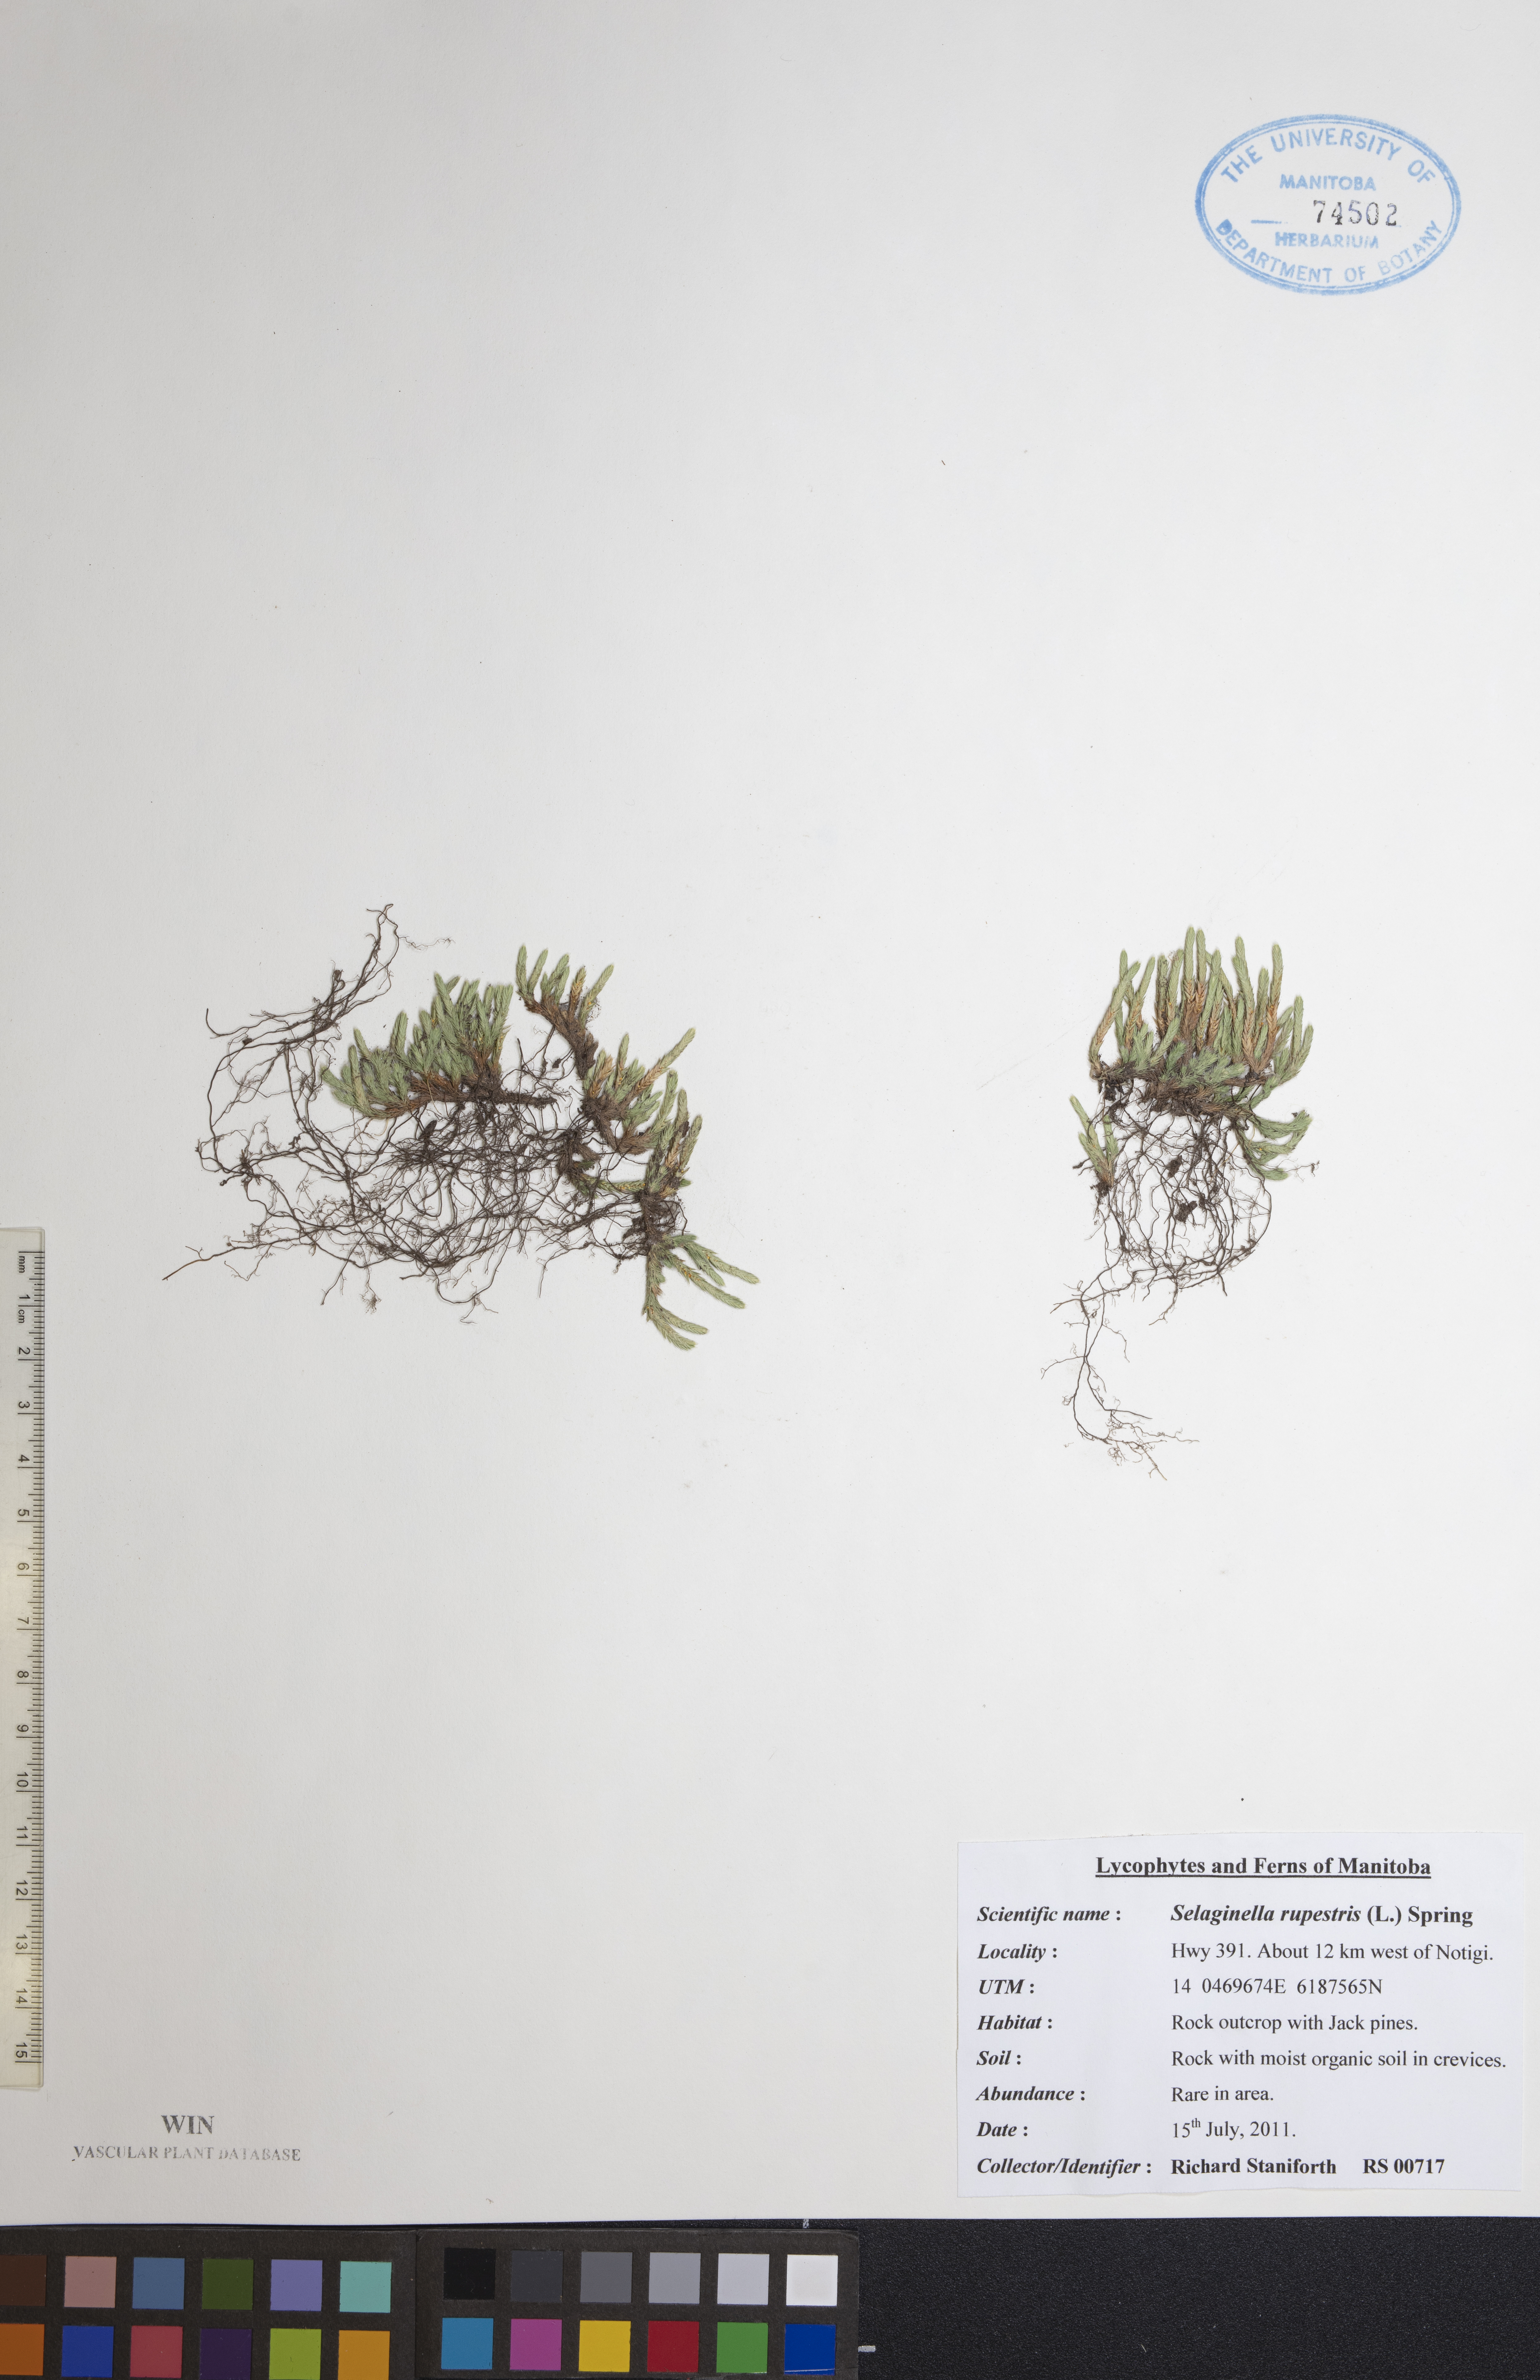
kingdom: Plantae
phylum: Tracheophyta
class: Lycopodiopsida
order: Selaginellales
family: Selaginellaceae
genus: Selaginella
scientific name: Selaginella rupestris
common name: Dwarf spikemoss
